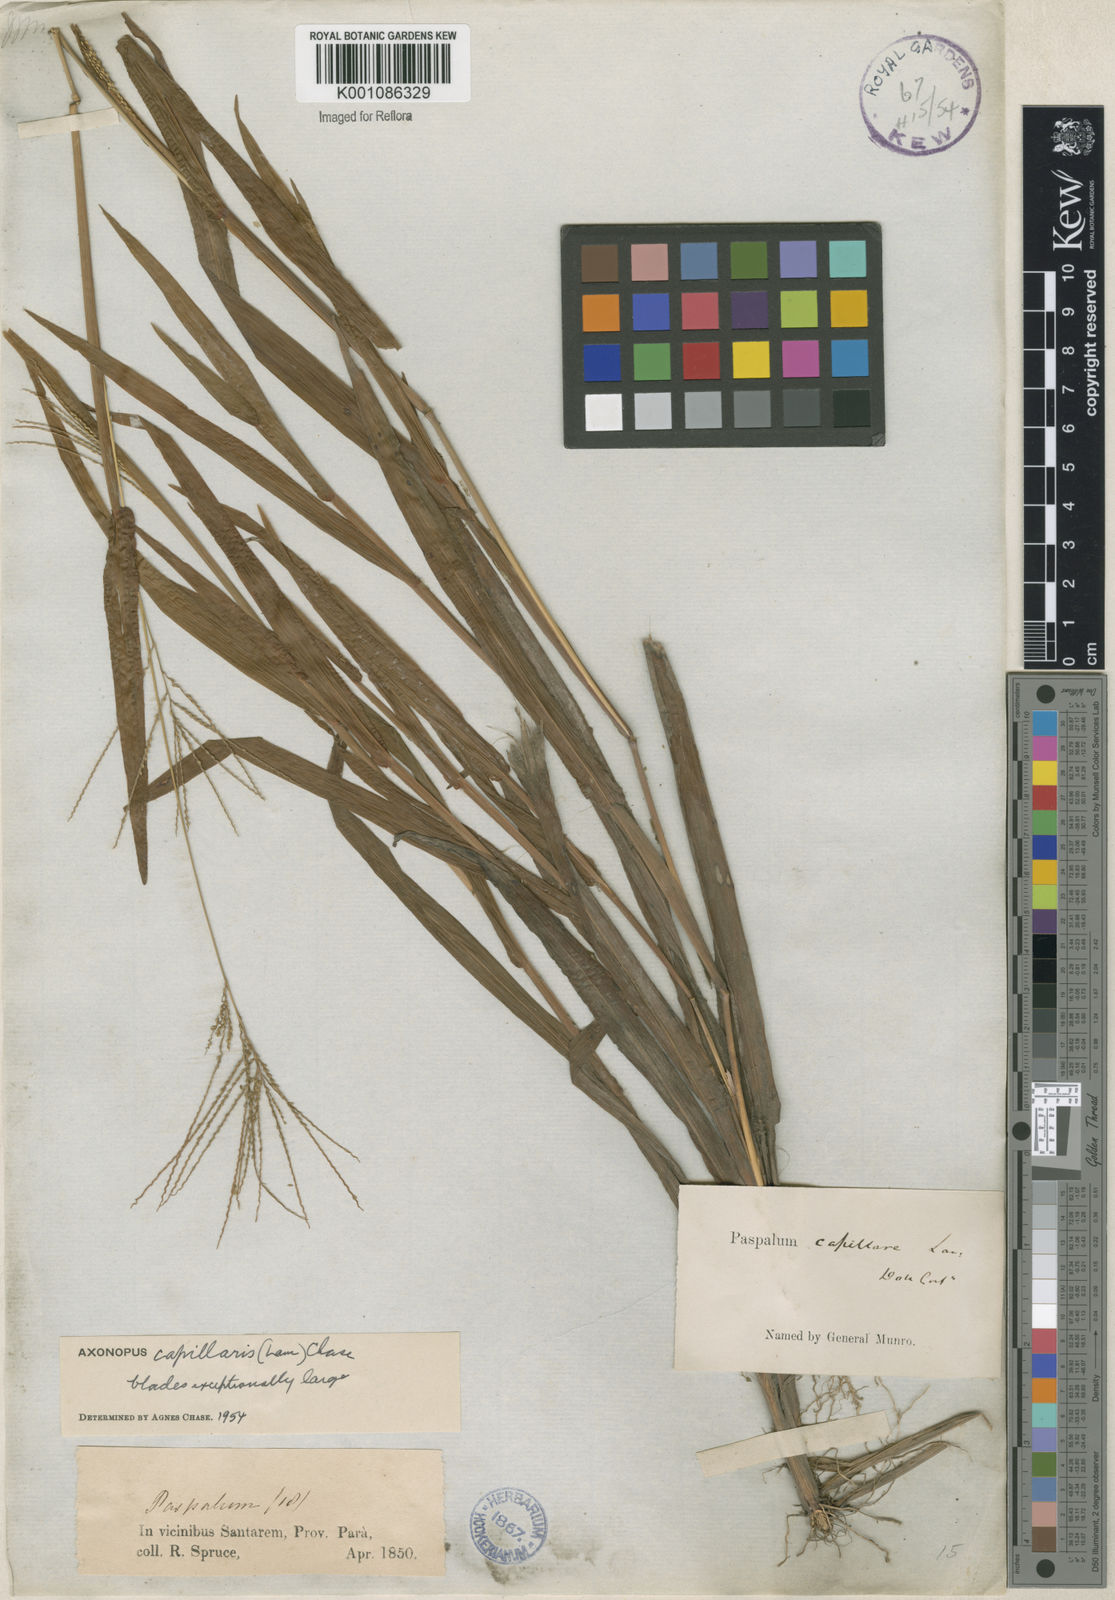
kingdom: Plantae
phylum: Tracheophyta
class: Liliopsida
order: Poales
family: Poaceae
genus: Axonopus
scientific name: Axonopus capillaris
